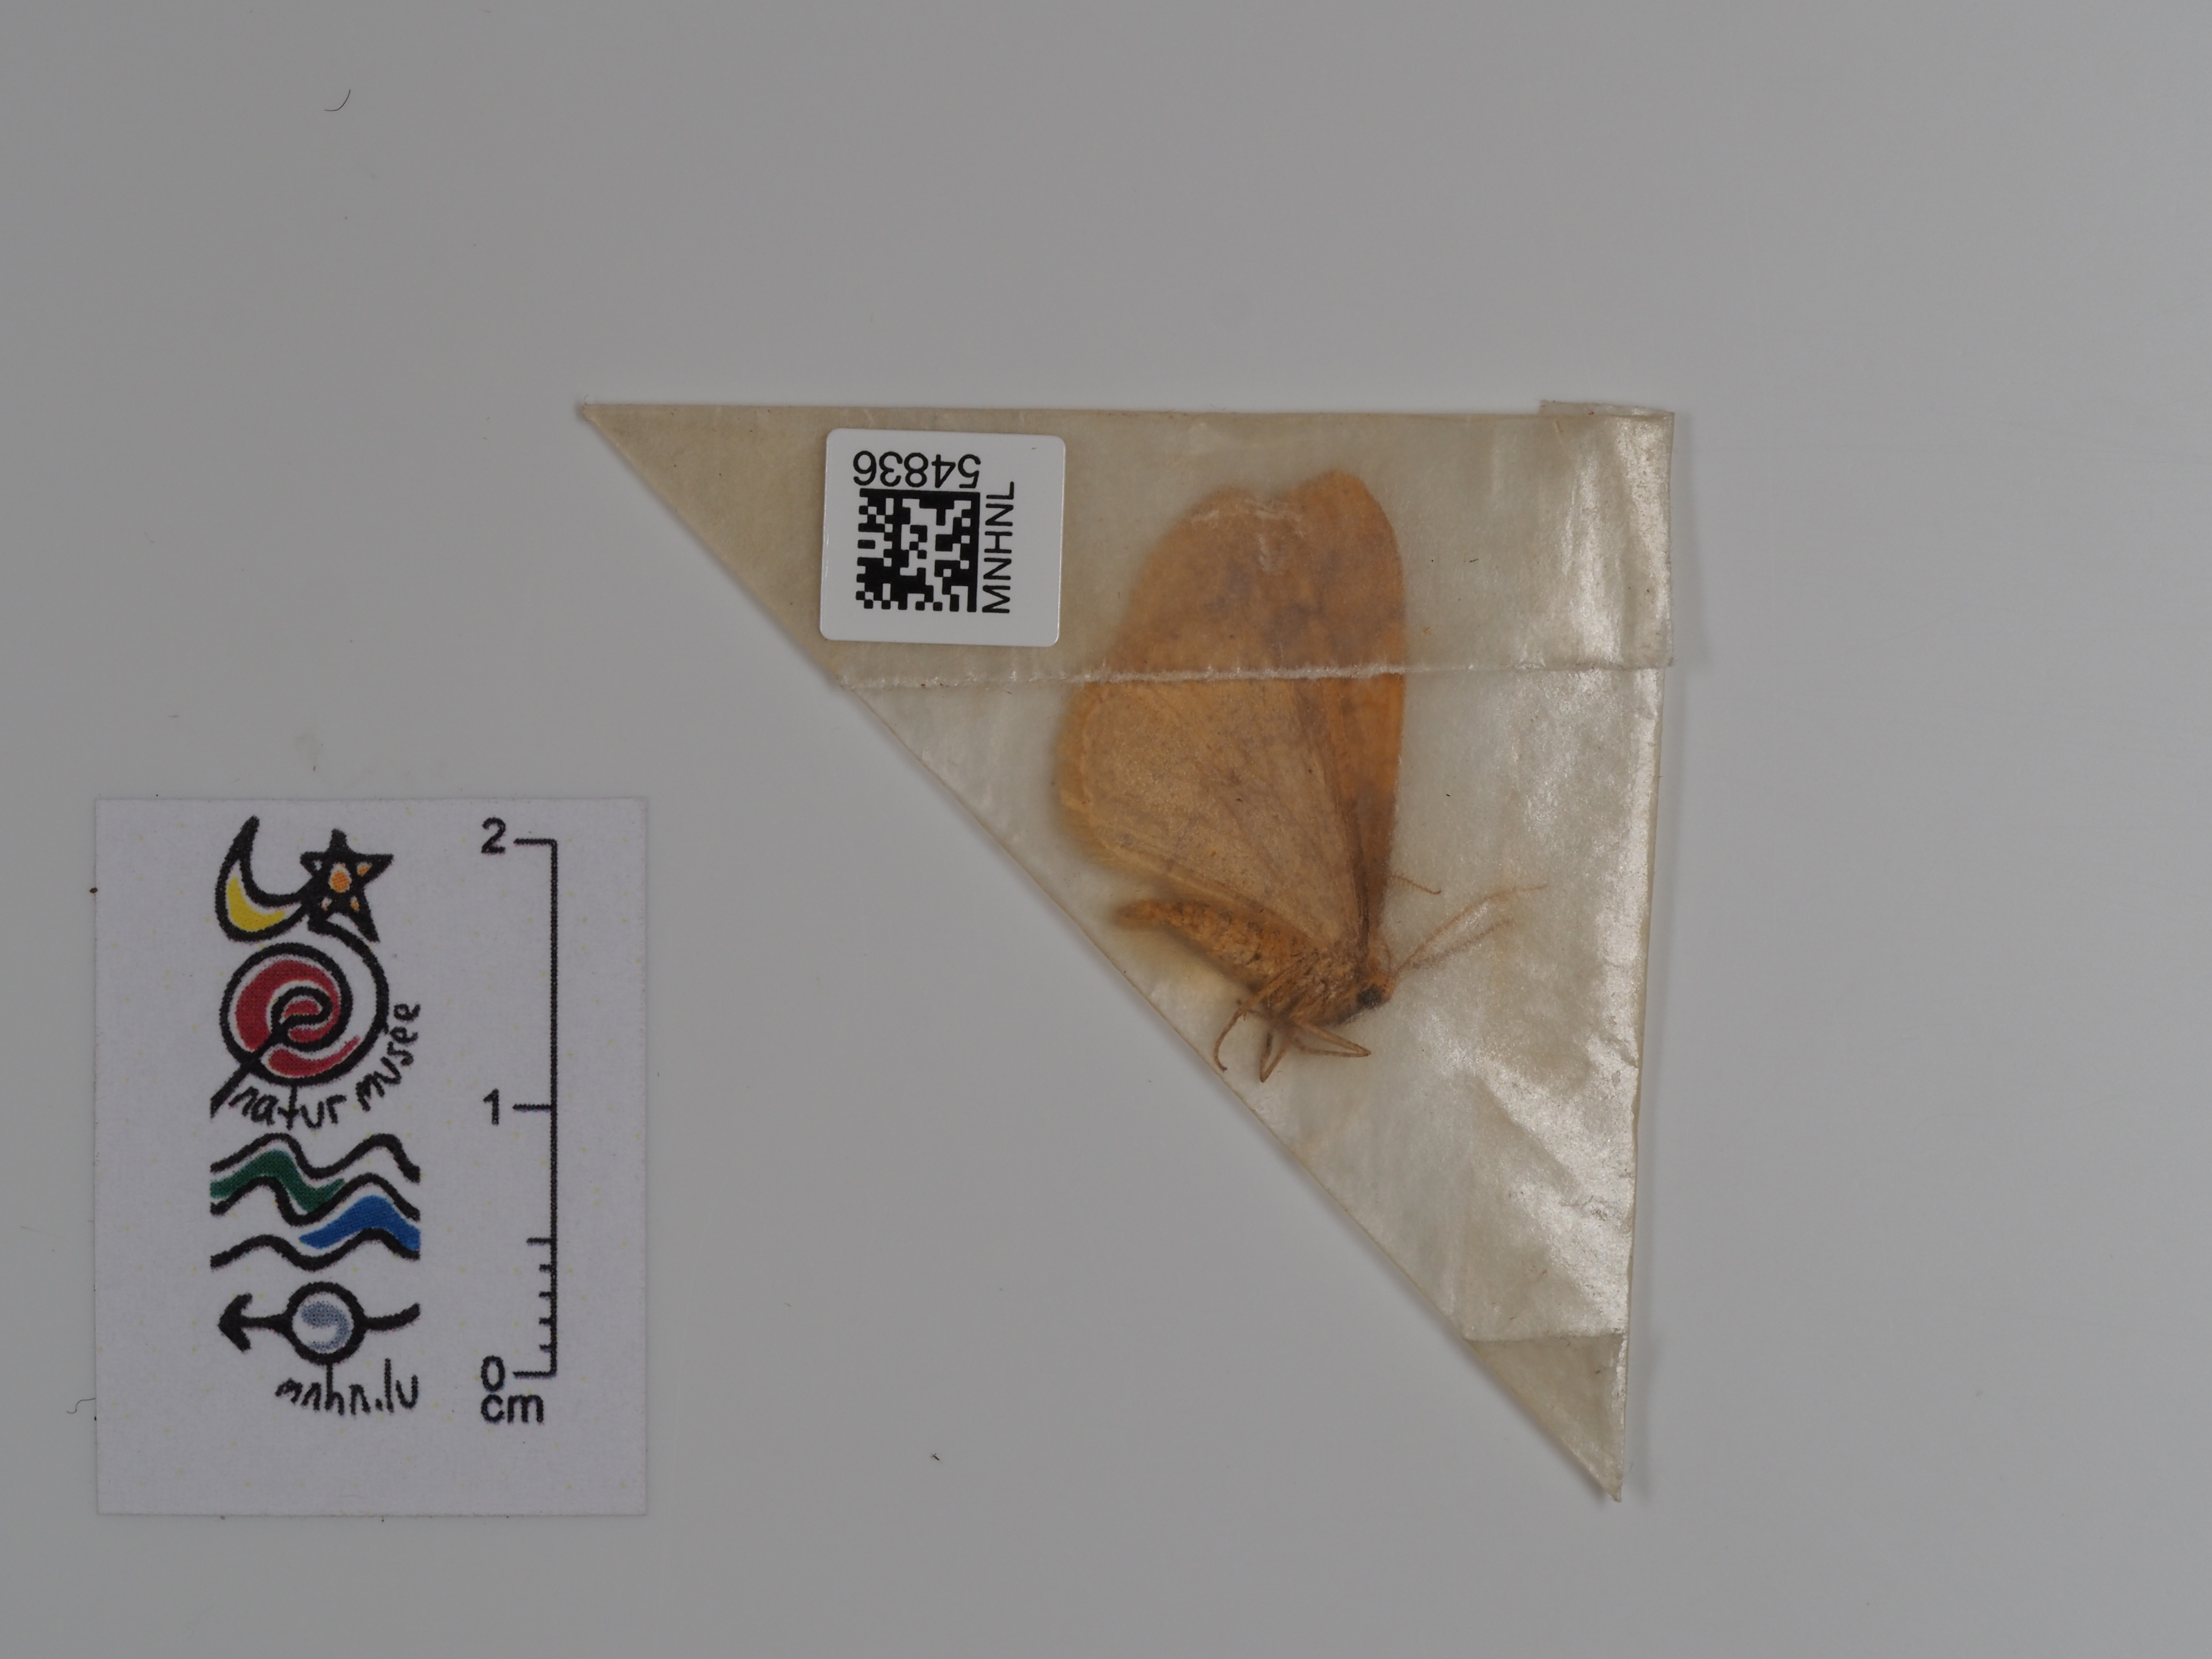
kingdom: Animalia
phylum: Arthropoda
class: Insecta
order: Lepidoptera
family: Geometridae
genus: Agriopis
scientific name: Agriopis aurantiaria
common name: Scarce umber
